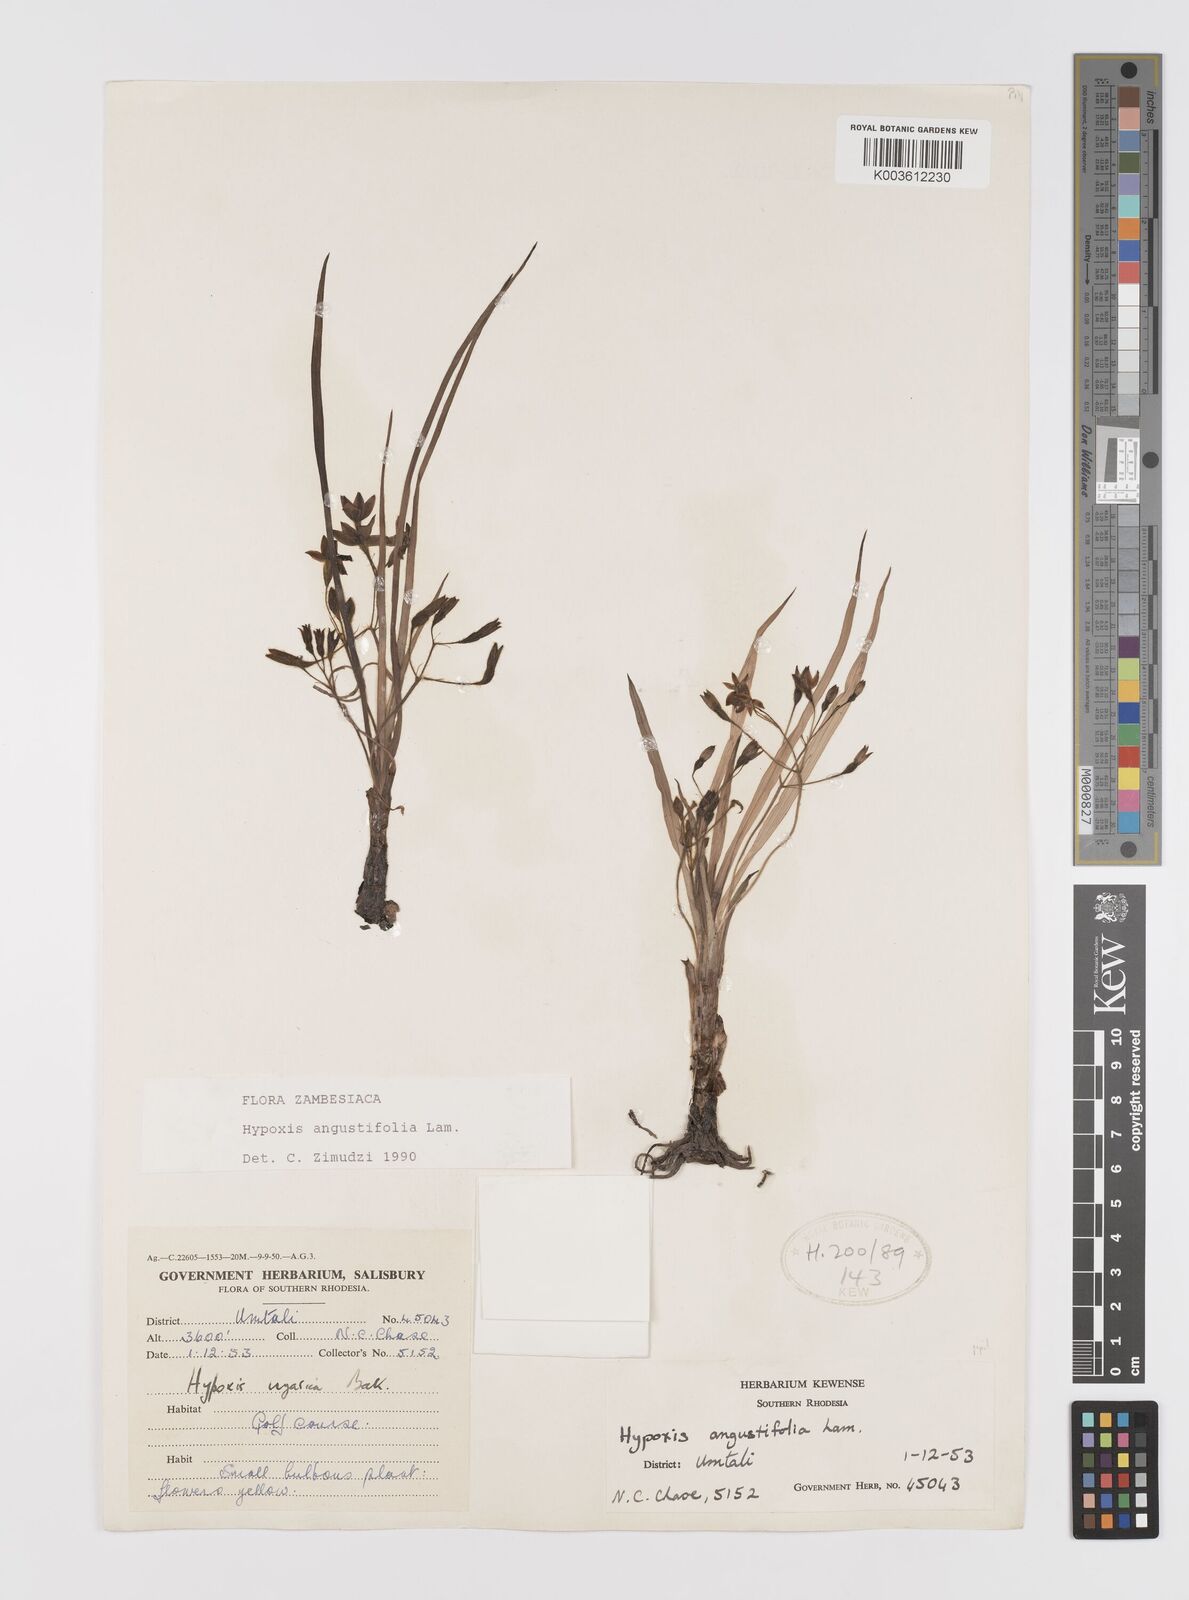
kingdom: Plantae
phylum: Tracheophyta
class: Liliopsida
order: Asparagales
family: Hypoxidaceae
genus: Hypoxis
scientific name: Hypoxis angustifolia
